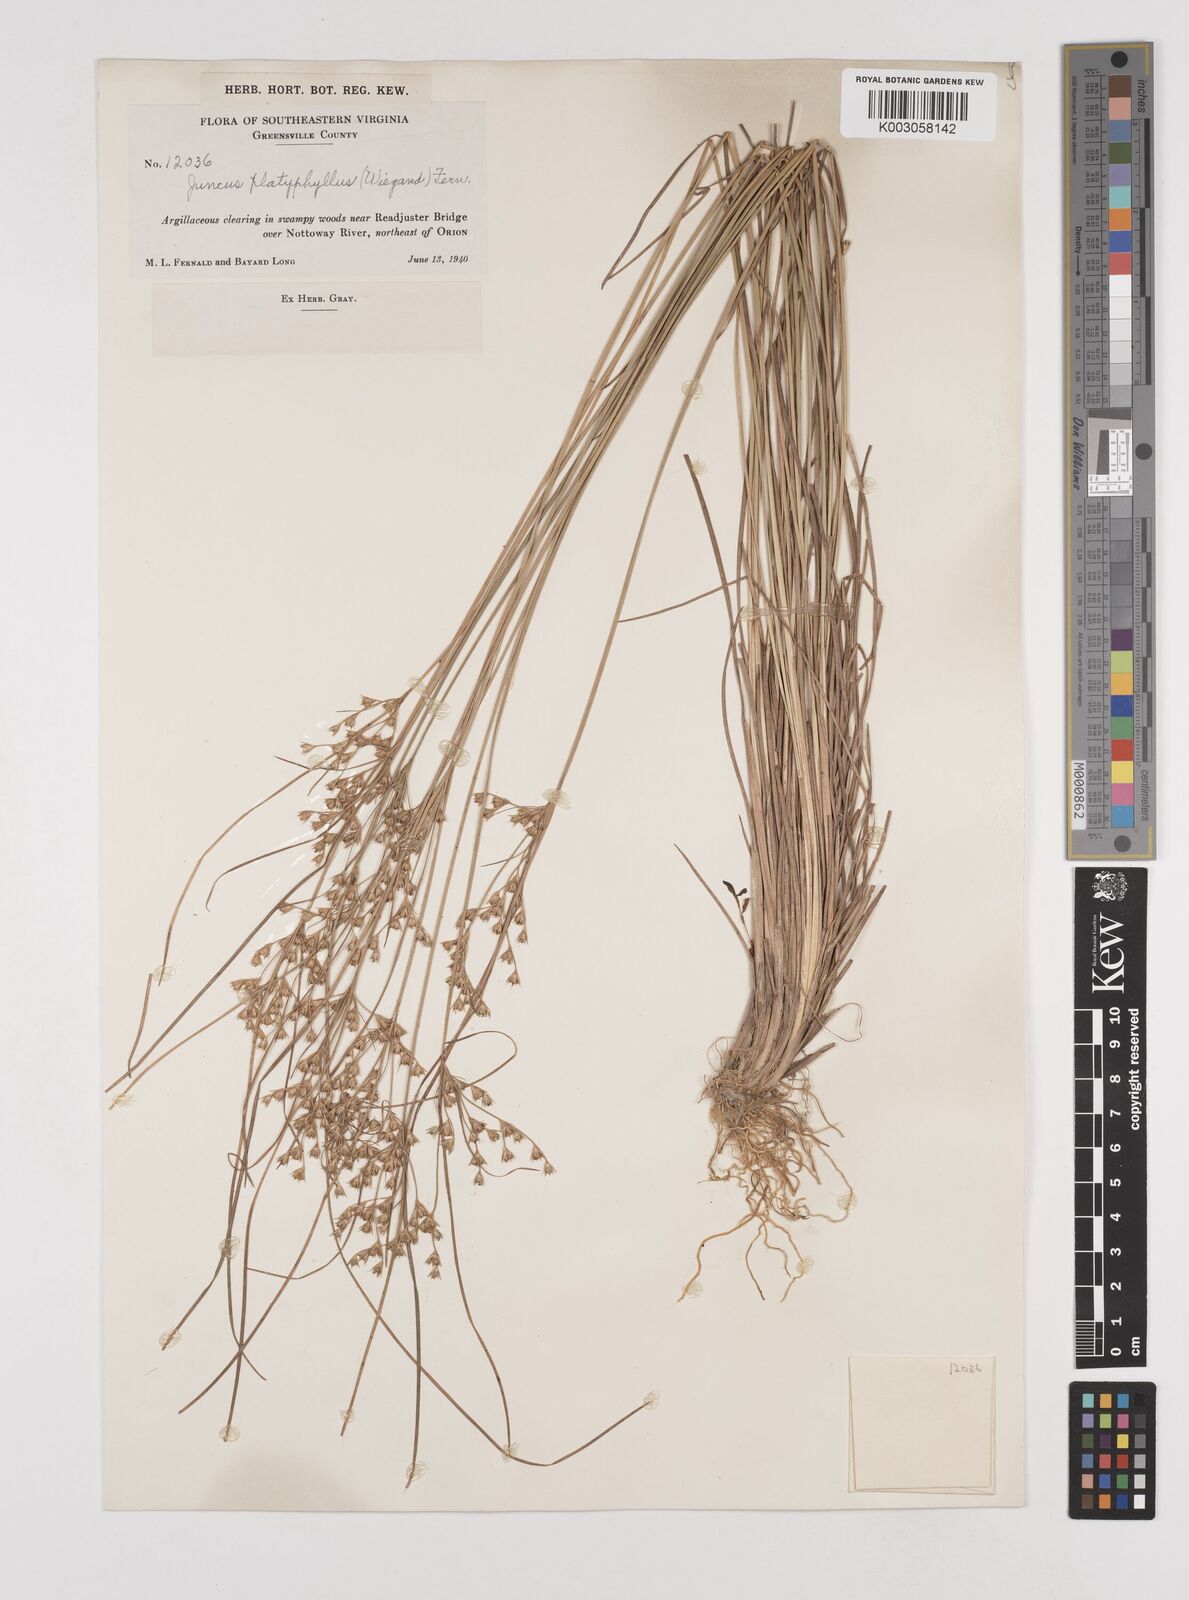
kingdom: Plantae
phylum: Tracheophyta
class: Liliopsida
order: Poales
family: Juncaceae
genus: Juncus
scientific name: Juncus dichotomus
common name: Forked rush
